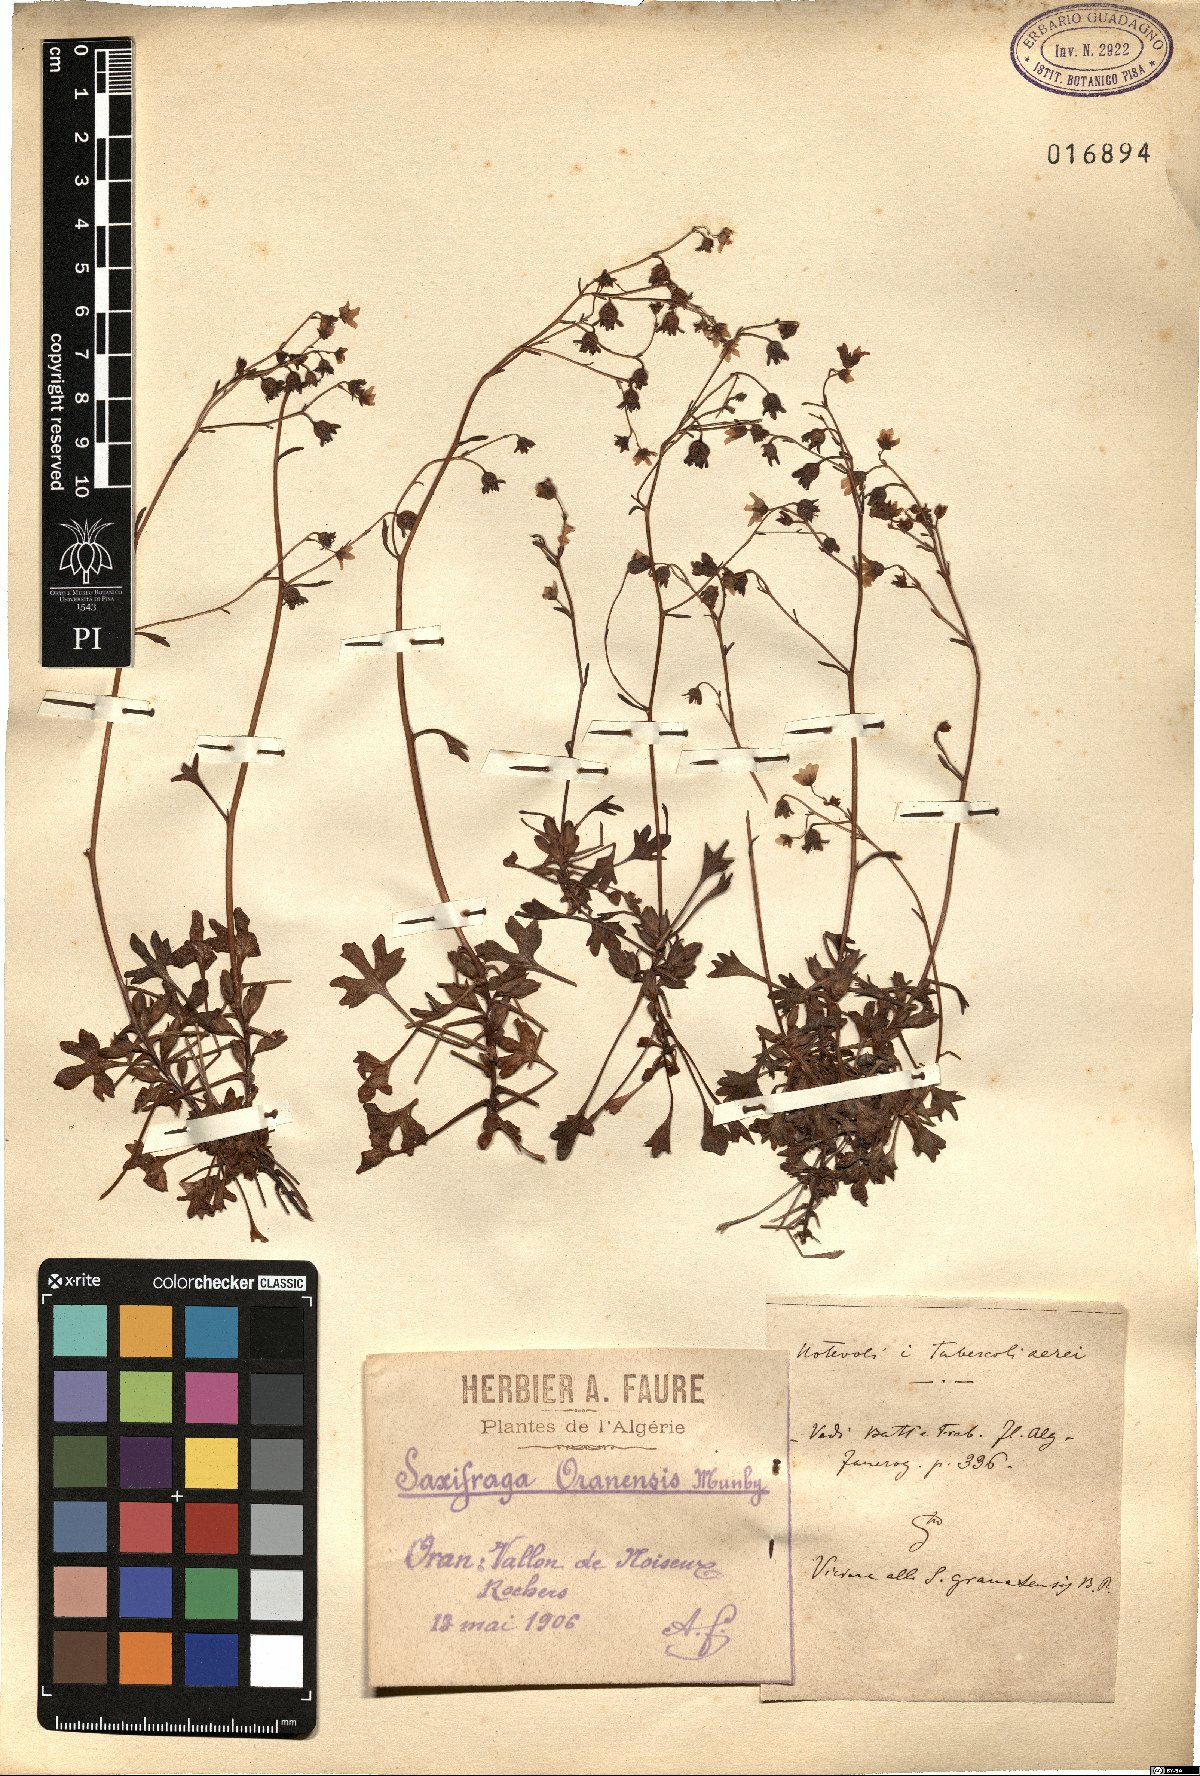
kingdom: Plantae
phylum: Tracheophyta
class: Magnoliopsida
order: Saxifragales
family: Saxifragaceae
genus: Saxifraga
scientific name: Saxifraga globulifera
